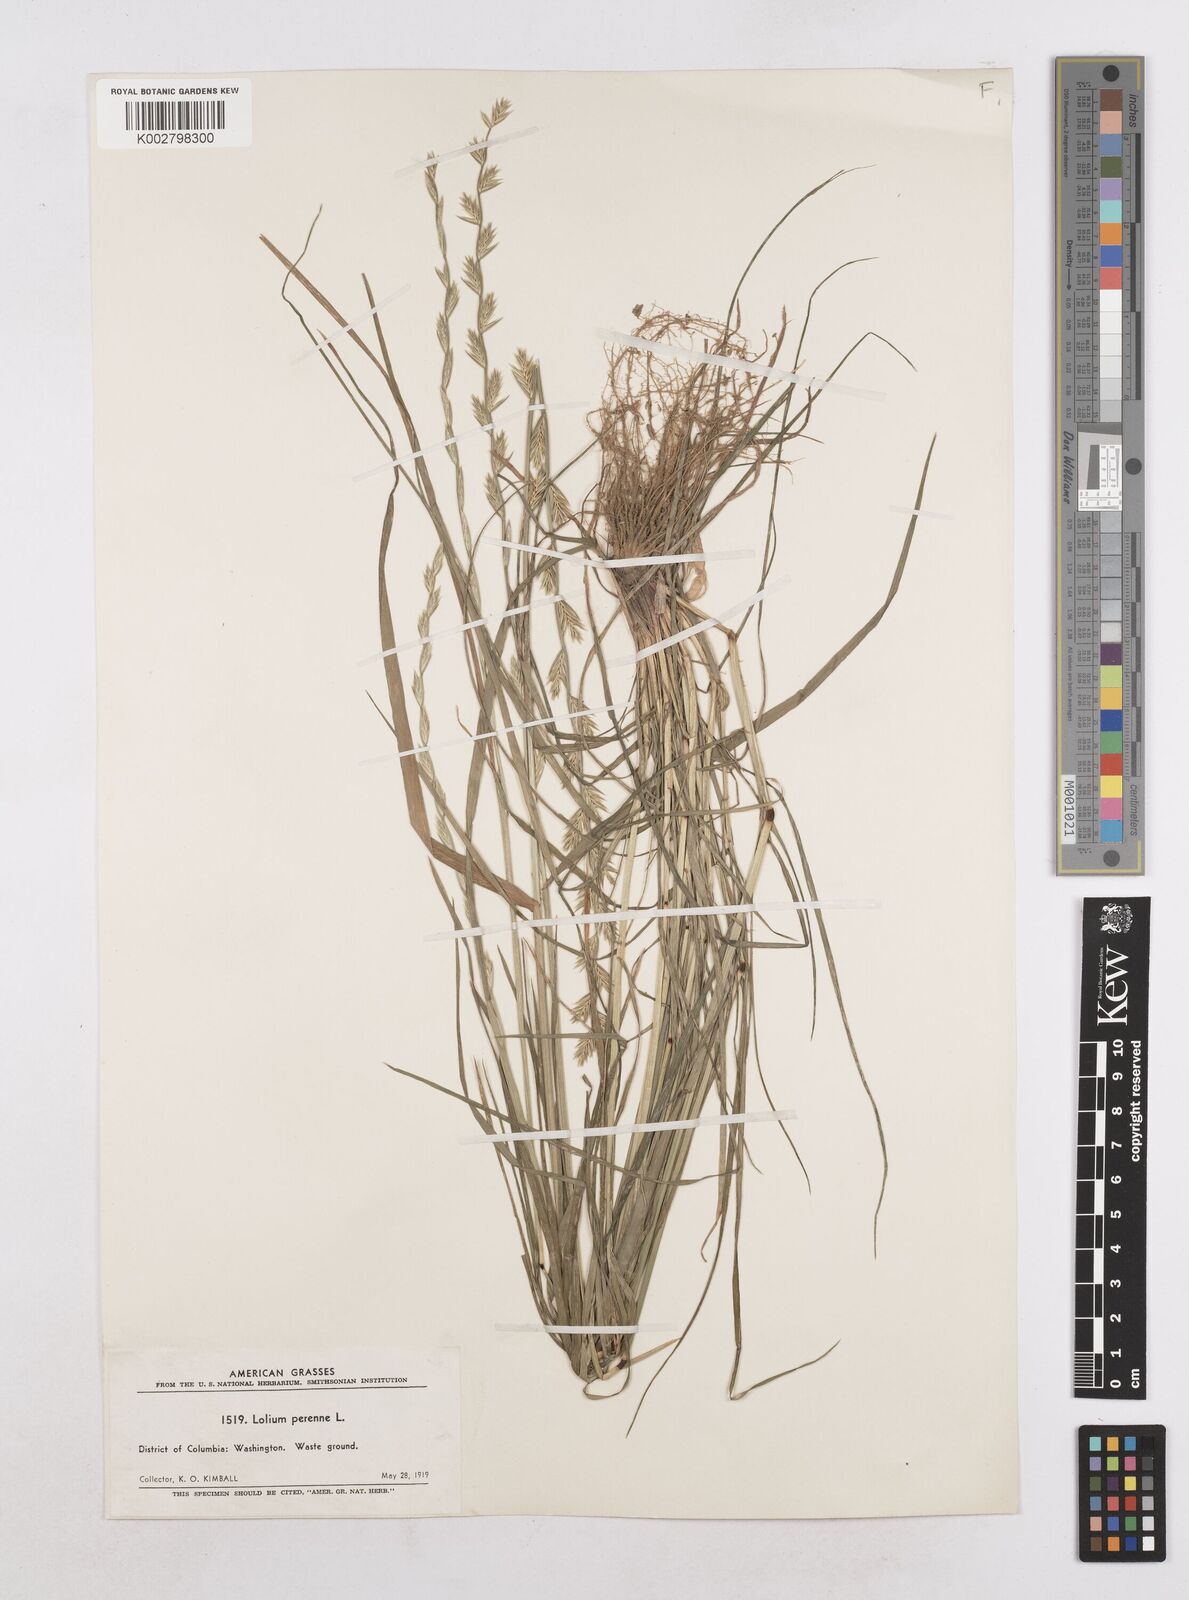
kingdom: Plantae
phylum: Tracheophyta
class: Liliopsida
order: Poales
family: Poaceae
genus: Lolium
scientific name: Lolium perenne
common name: Perennial ryegrass
